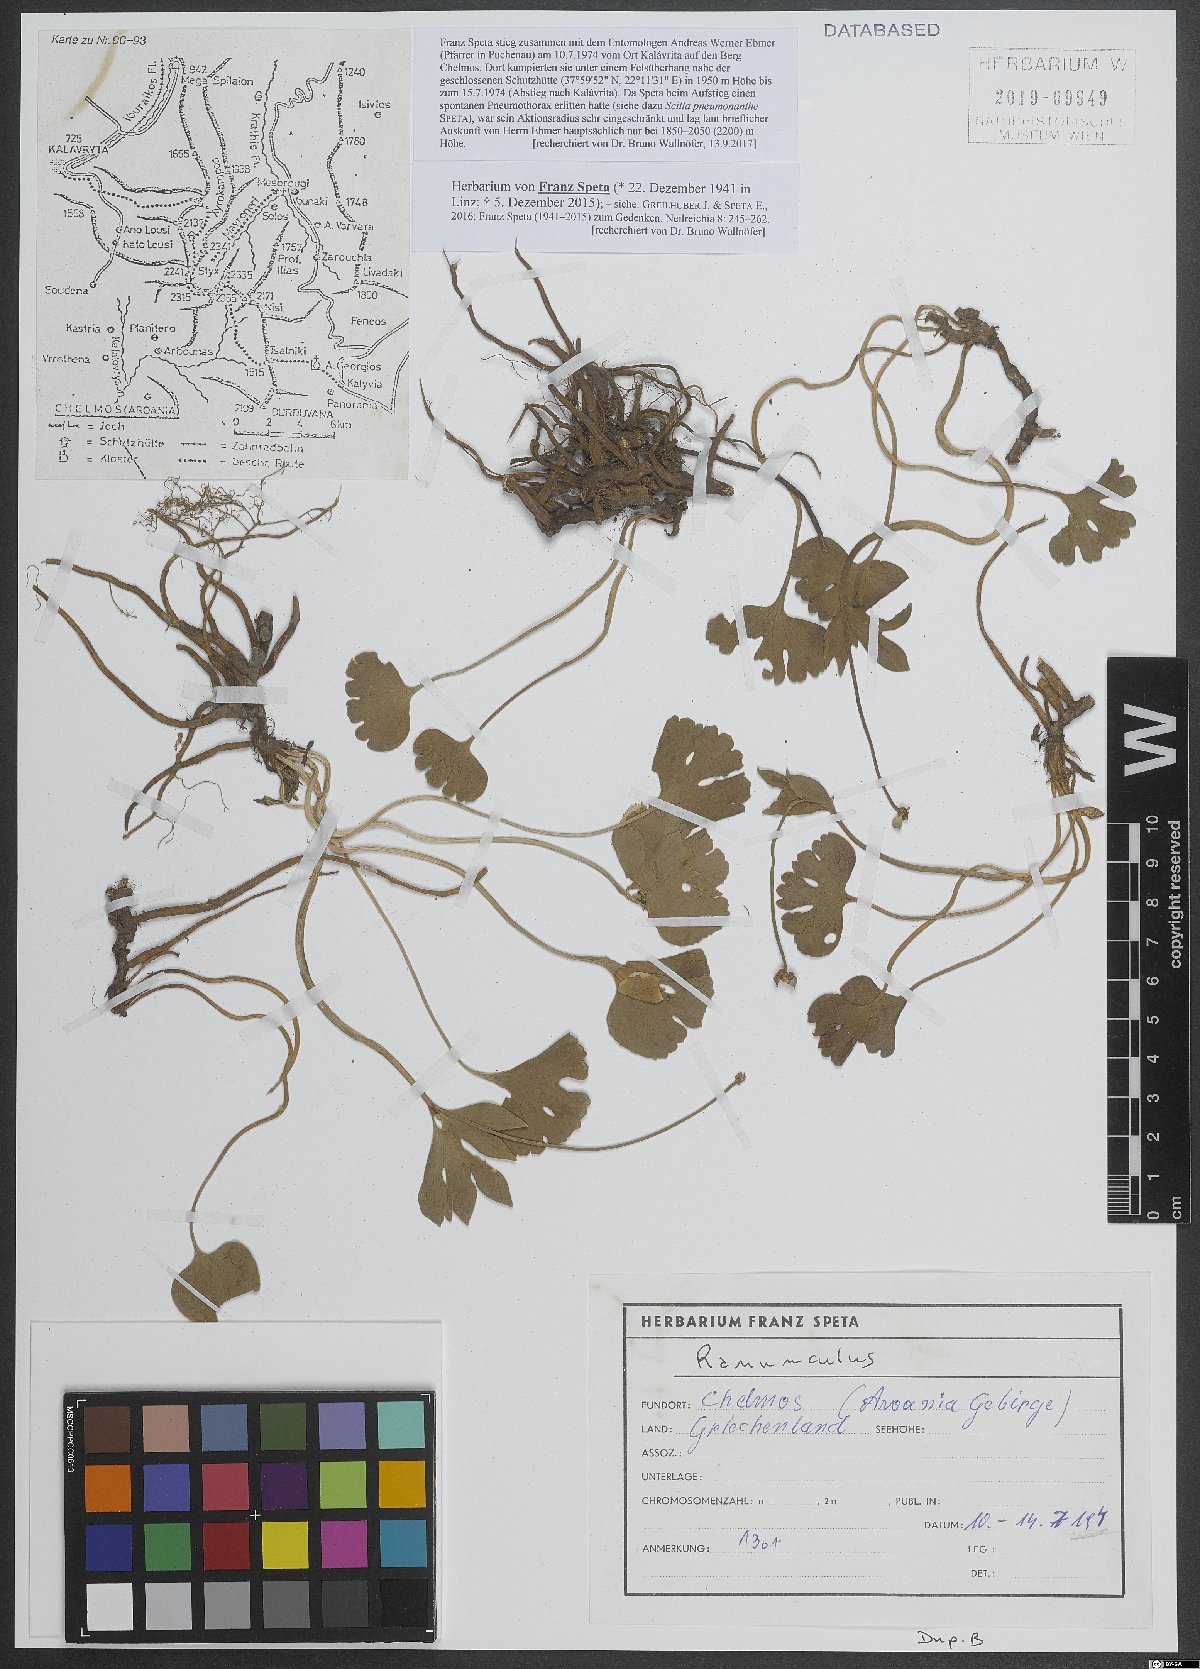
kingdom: Plantae
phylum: Tracheophyta
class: Magnoliopsida
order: Ranunculales
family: Ranunculaceae
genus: Ranunculus
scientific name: Ranunculus
